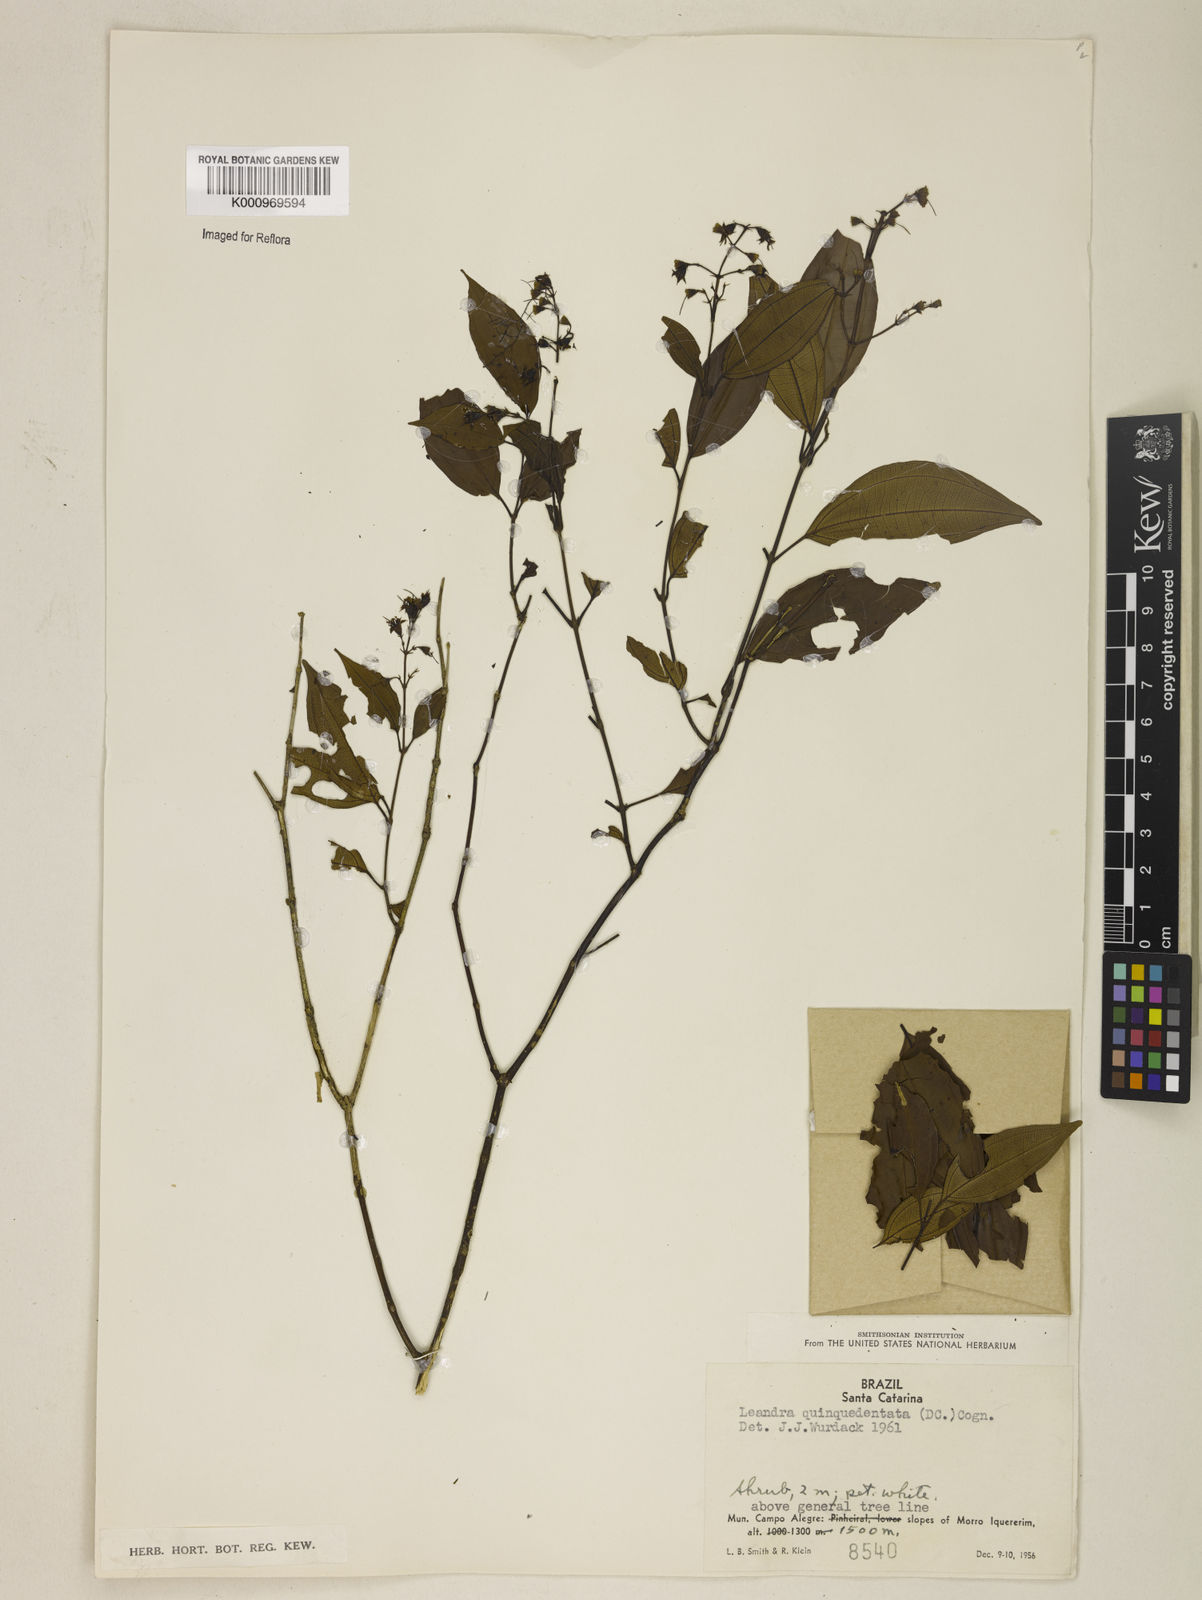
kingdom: Plantae
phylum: Tracheophyta
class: Magnoliopsida
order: Myrtales
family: Melastomataceae
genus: Miconia
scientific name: Miconia quinquedentata
